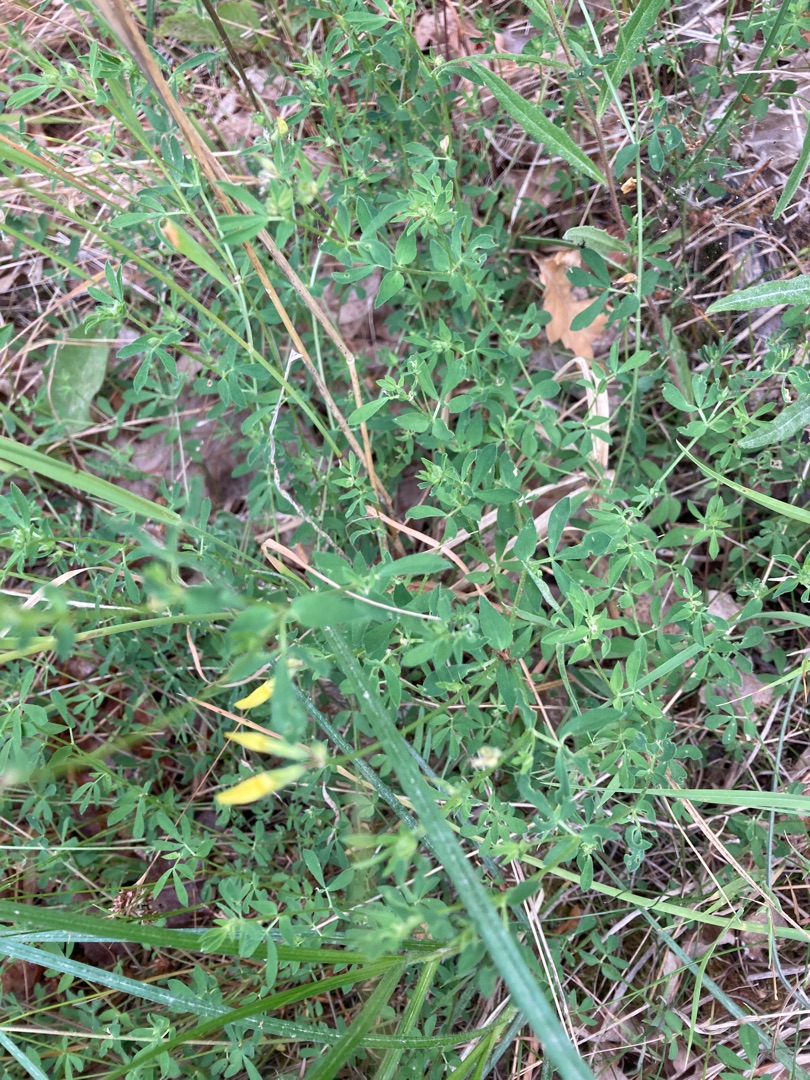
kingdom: Plantae
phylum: Tracheophyta
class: Magnoliopsida
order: Fabales
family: Fabaceae
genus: Lotus
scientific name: Lotus corniculatus
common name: Almindelig kællingetand
